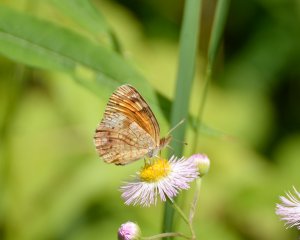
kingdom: Animalia
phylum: Arthropoda
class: Insecta
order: Lepidoptera
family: Nymphalidae
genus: Phyciodes
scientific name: Phyciodes tharos
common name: Northern Crescent
